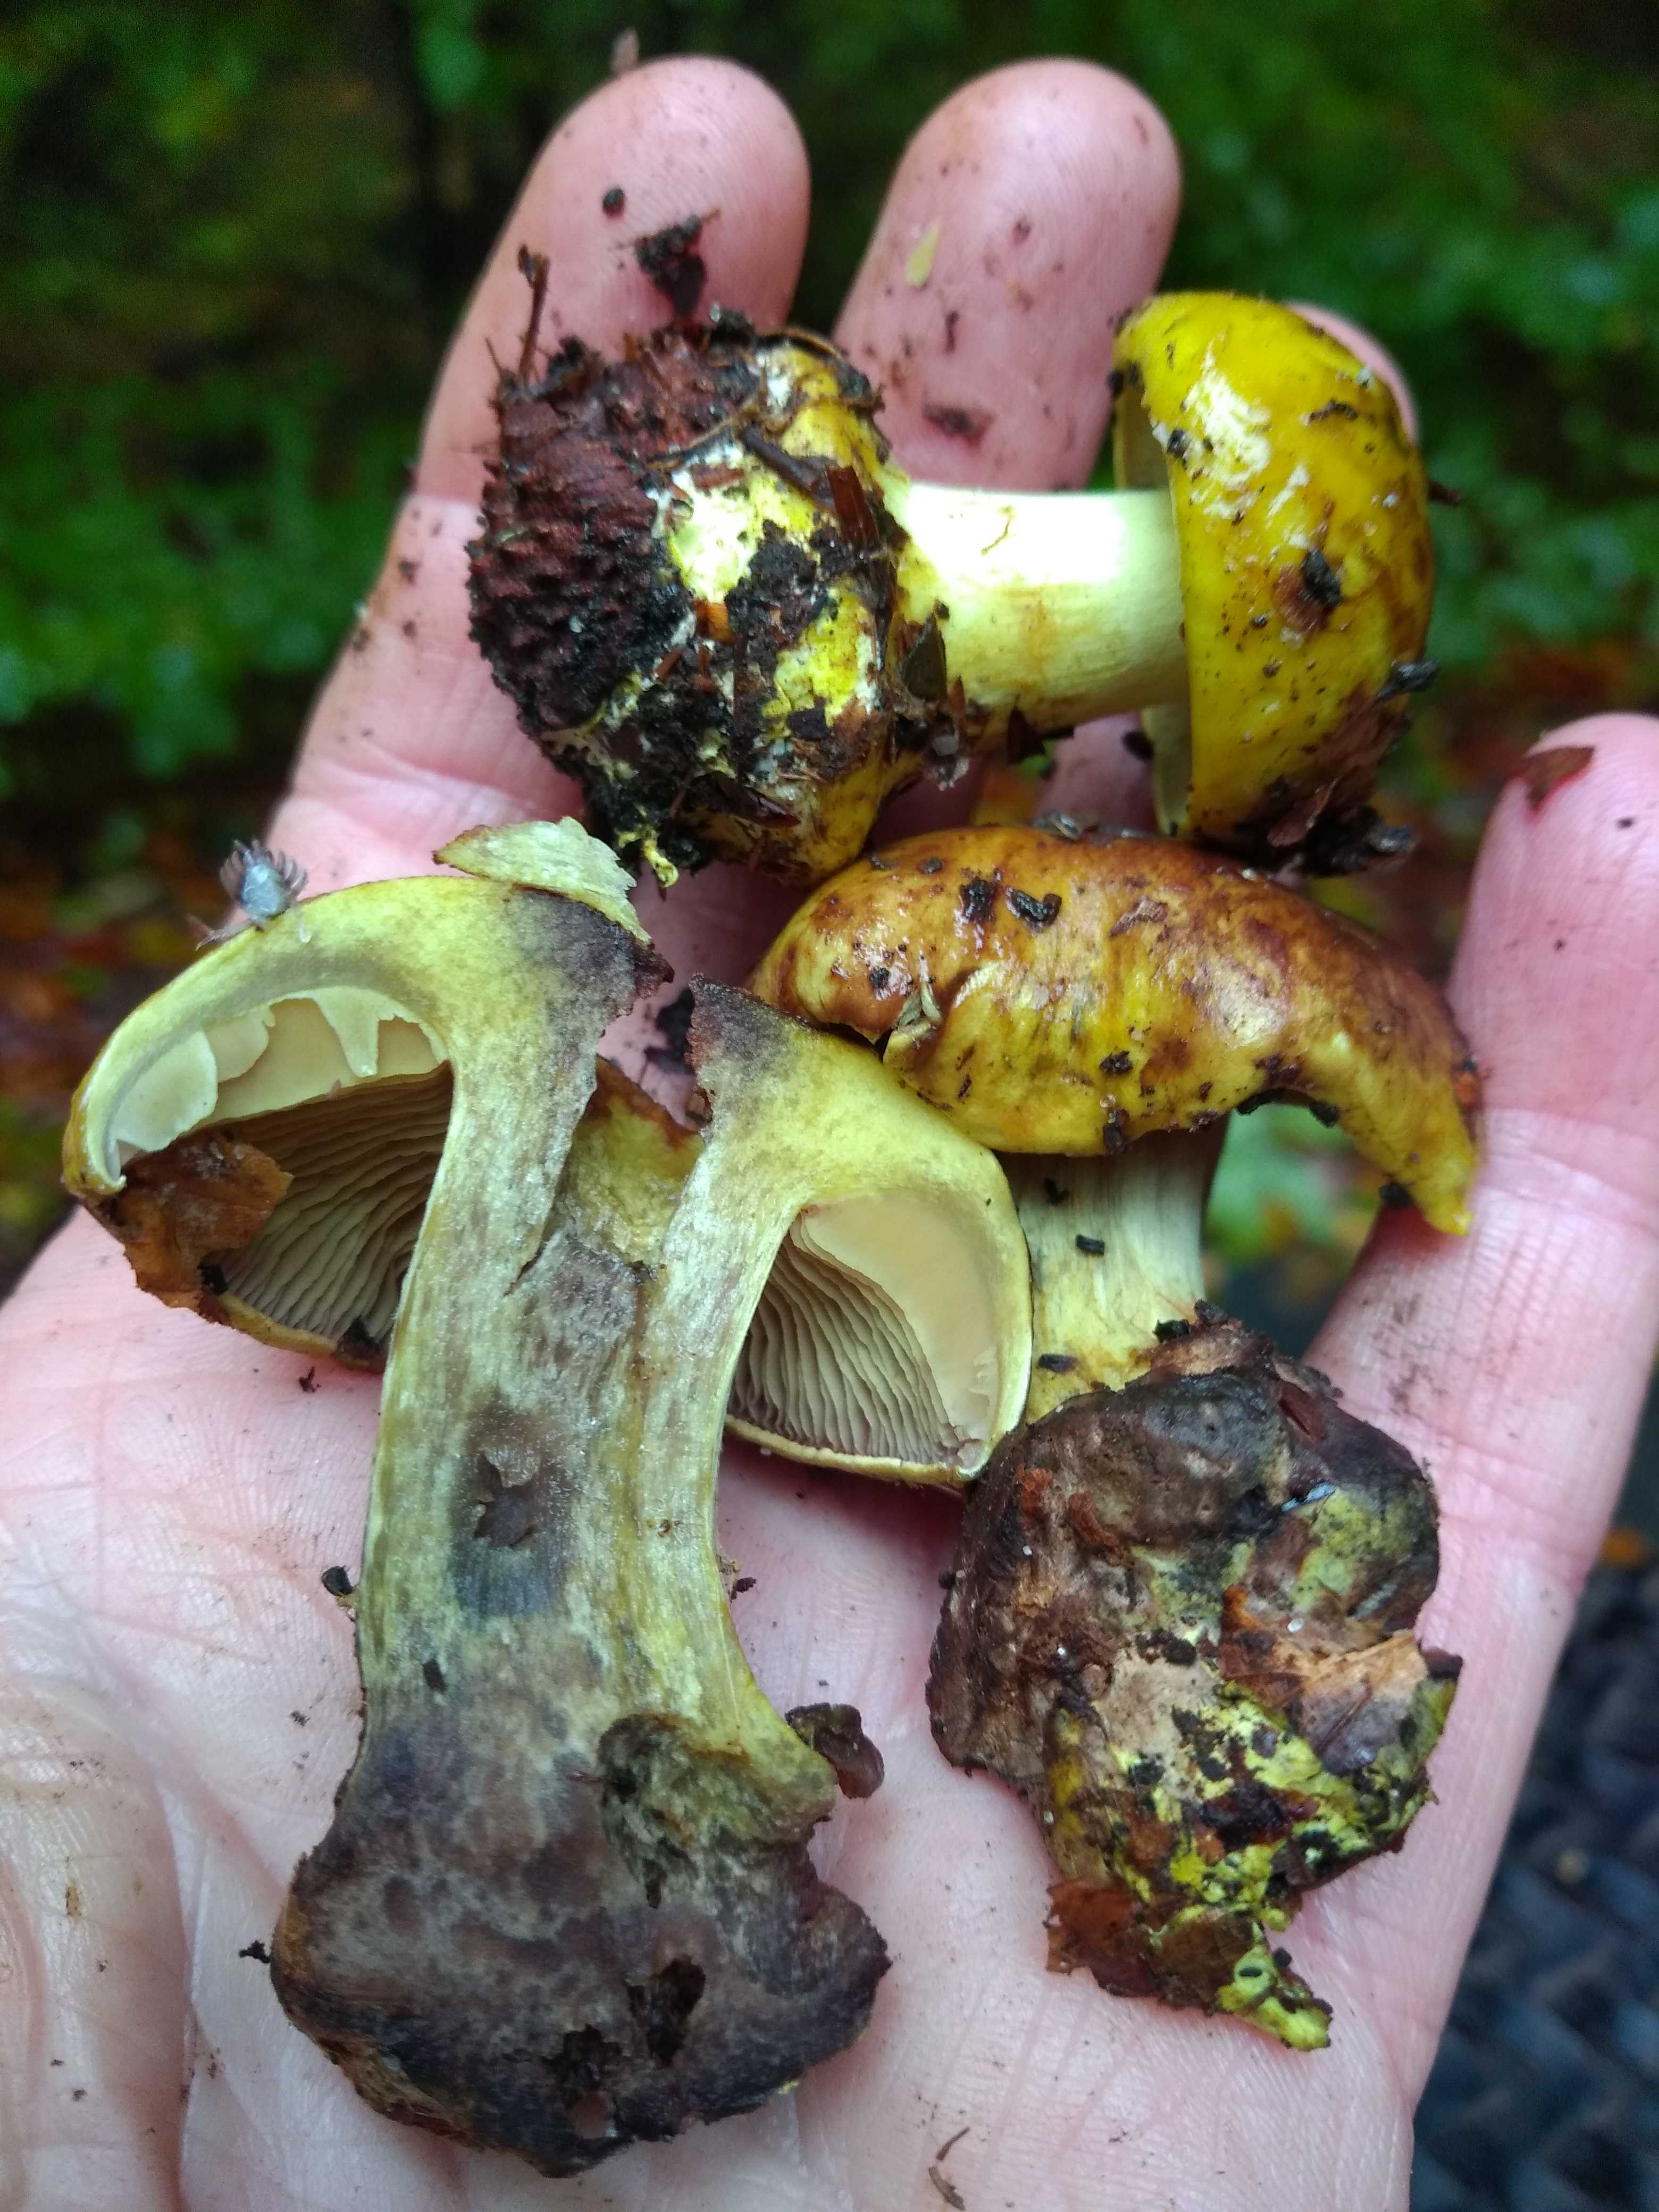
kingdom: Fungi
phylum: Basidiomycota
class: Agaricomycetes
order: Agaricales
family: Cortinariaceae
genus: Calonarius
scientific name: Calonarius citrinus
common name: citrongul slørhat
